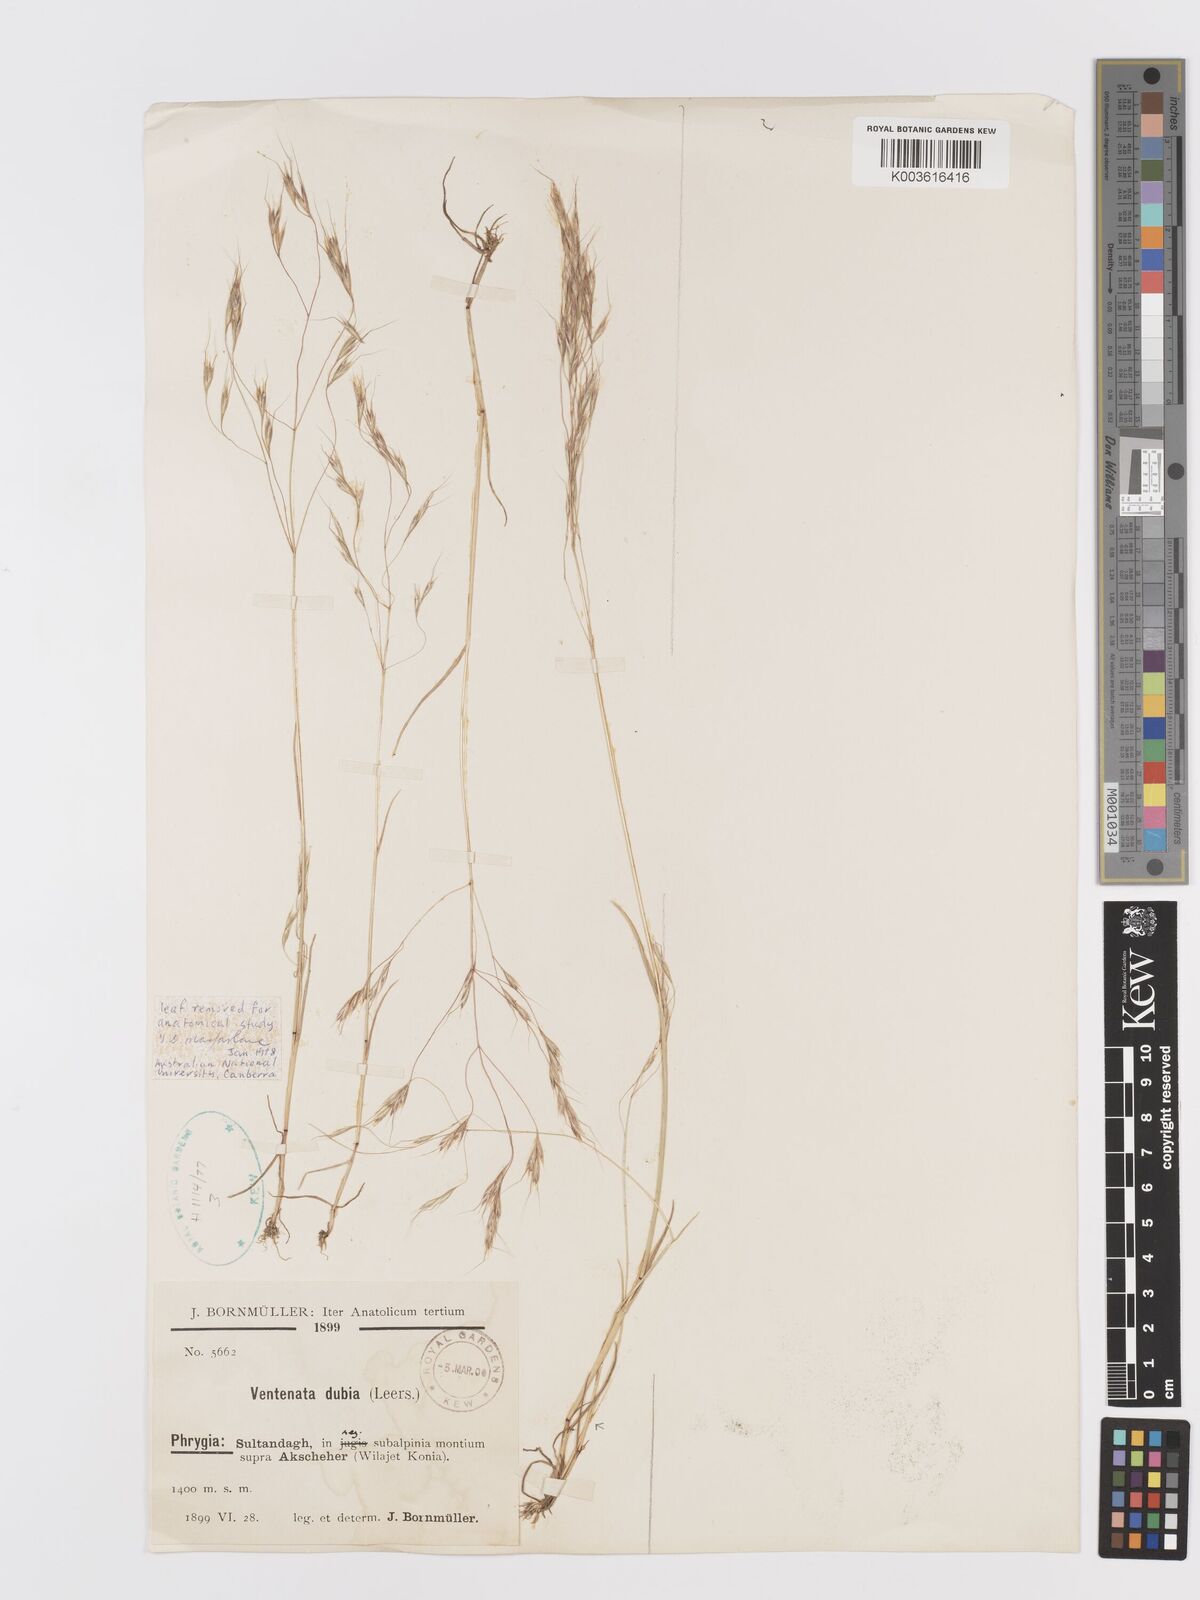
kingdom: Plantae
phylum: Tracheophyta
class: Liliopsida
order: Poales
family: Poaceae
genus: Ventenata
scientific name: Ventenata dubia
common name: North africa grass
